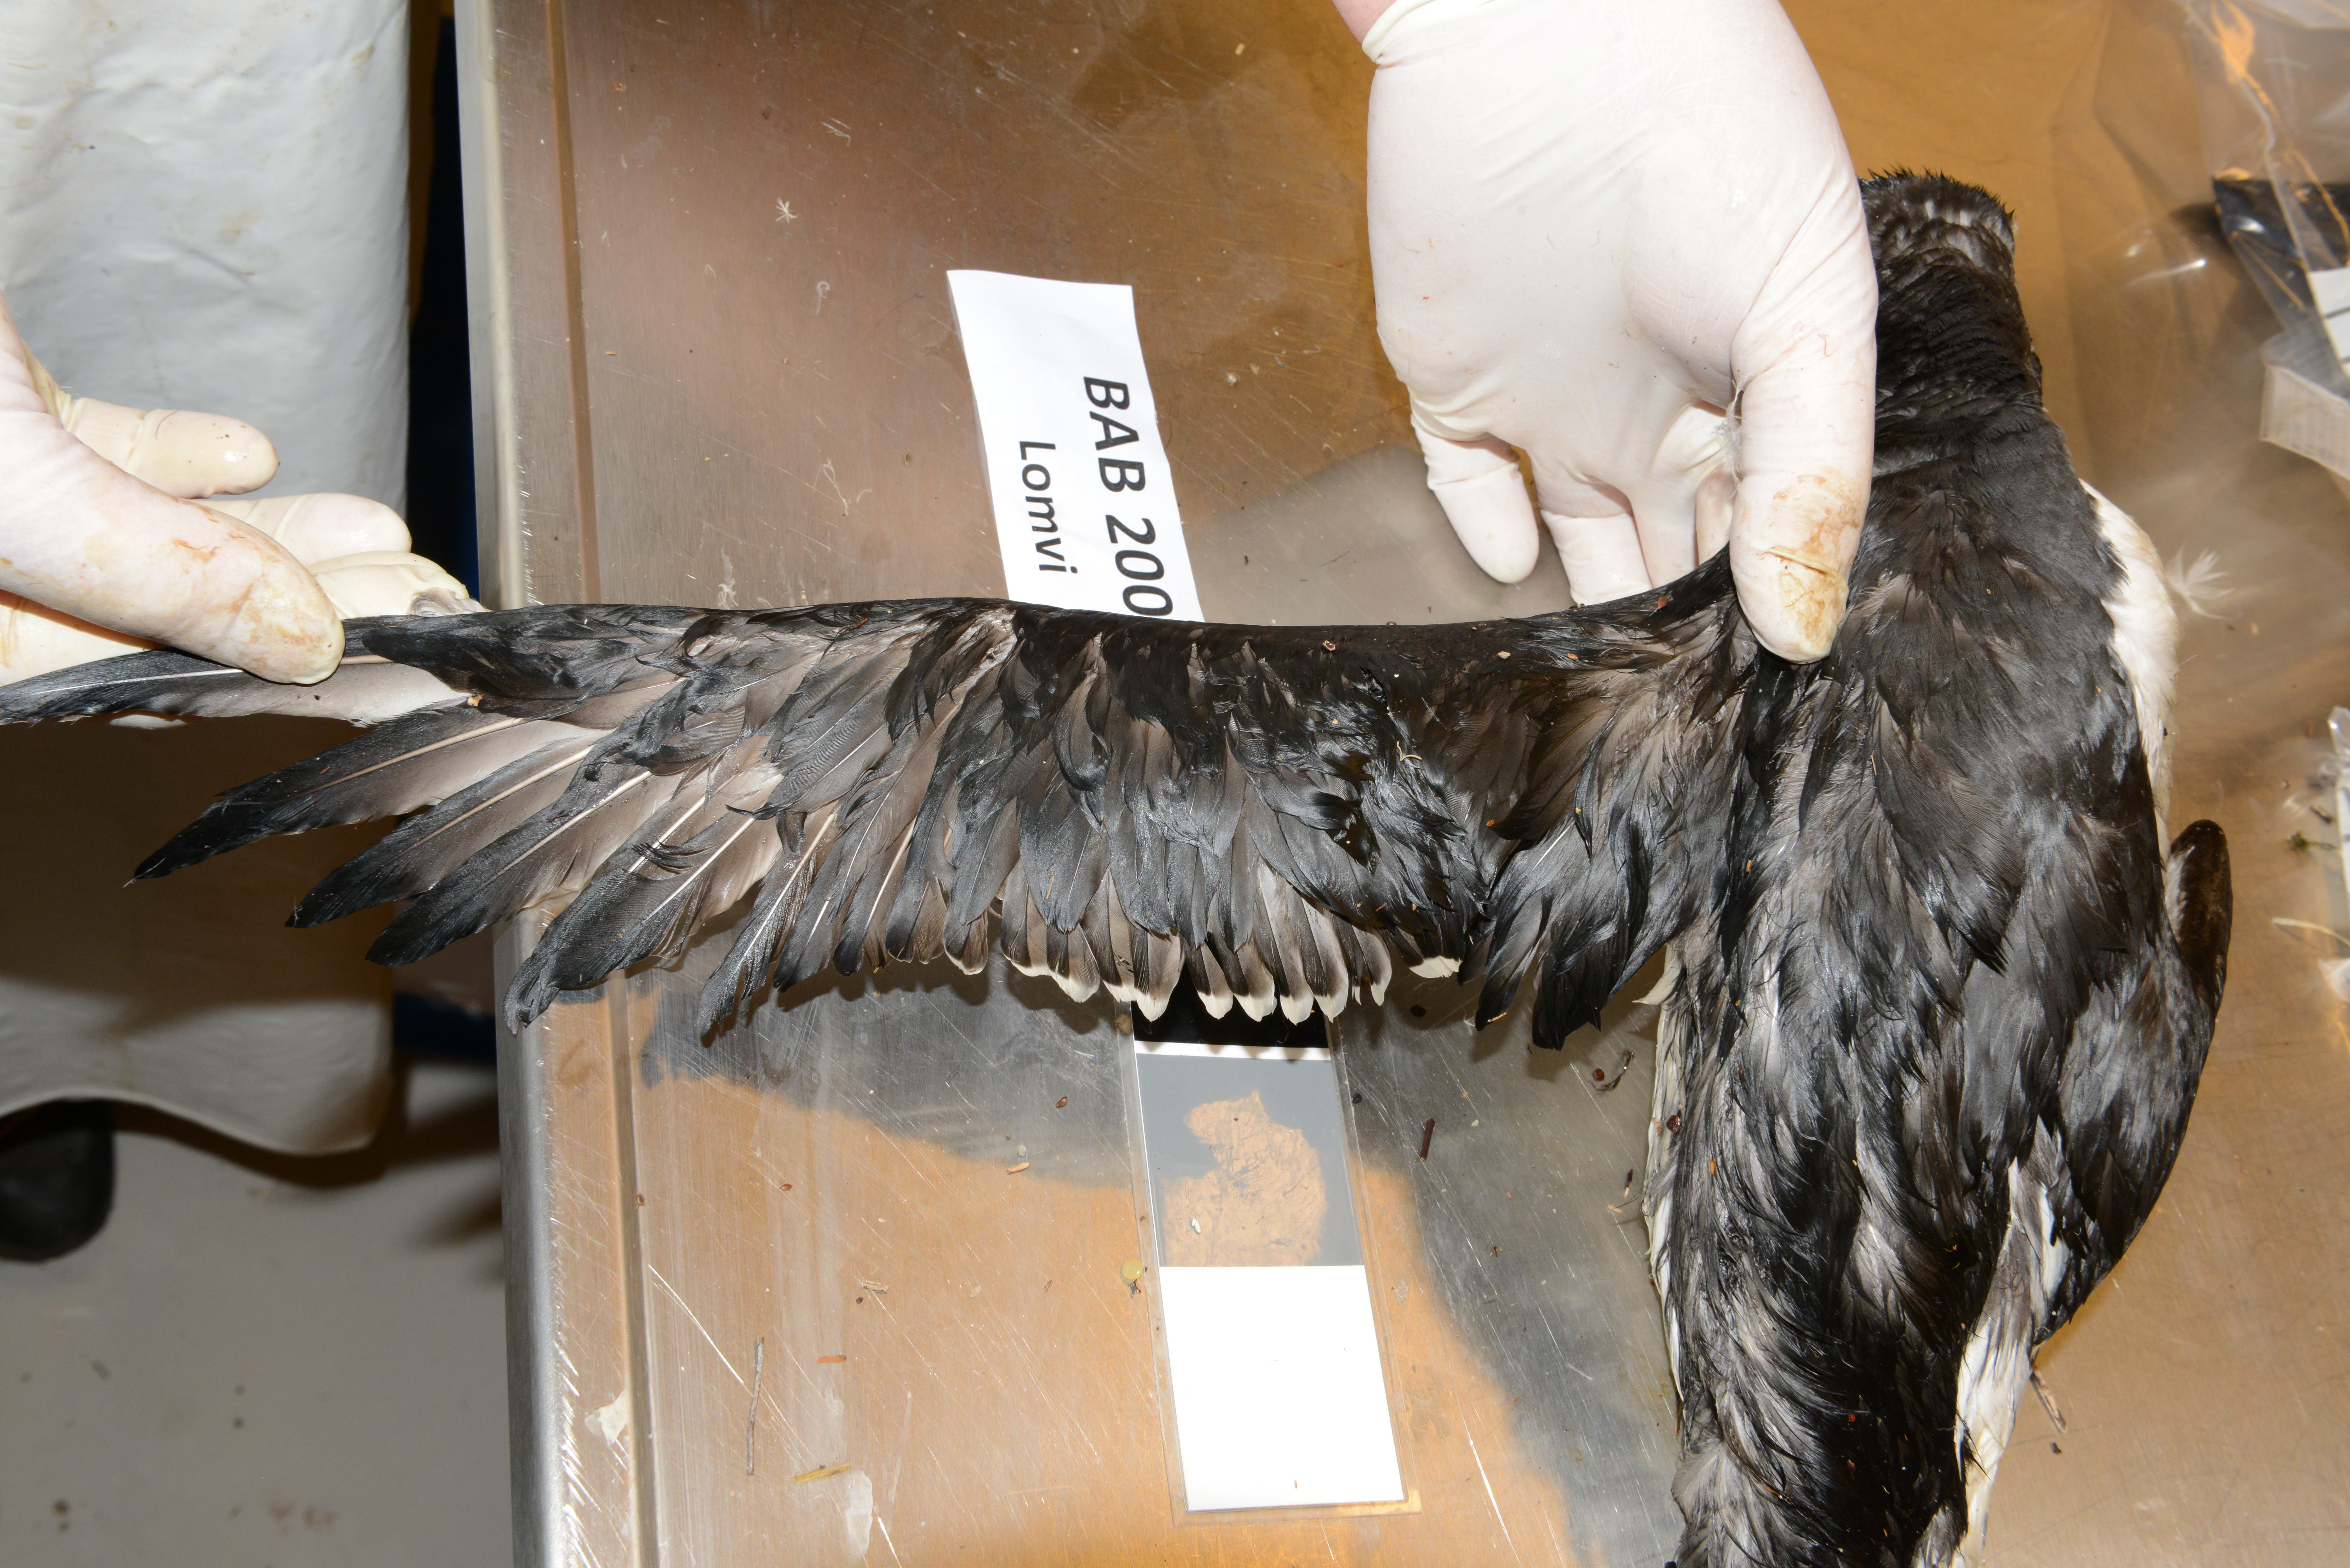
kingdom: Animalia
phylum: Chordata
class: Aves
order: Charadriiformes
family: Alcidae
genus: Uria
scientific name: Uria aalge
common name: Common murre
